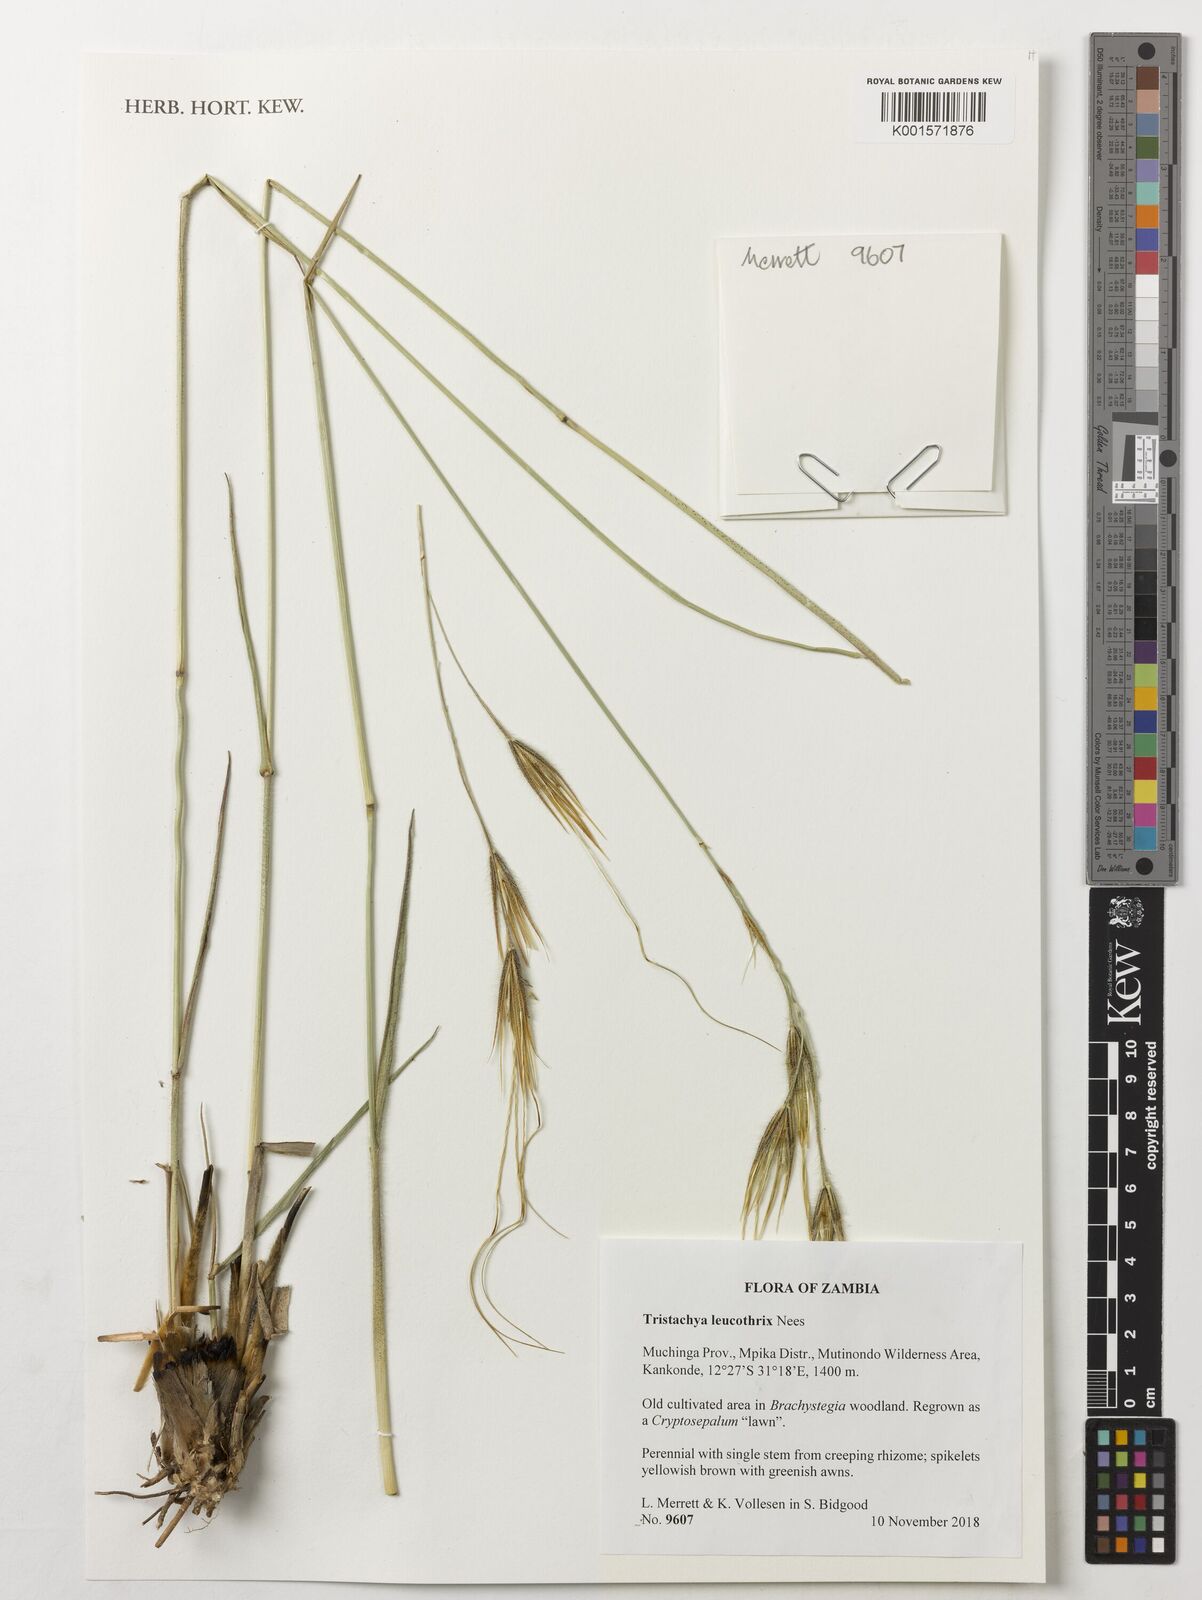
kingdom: Plantae
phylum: Tracheophyta
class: Liliopsida
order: Poales
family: Poaceae
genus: Tristachya
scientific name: Tristachya leucothrix
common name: Trident grass
